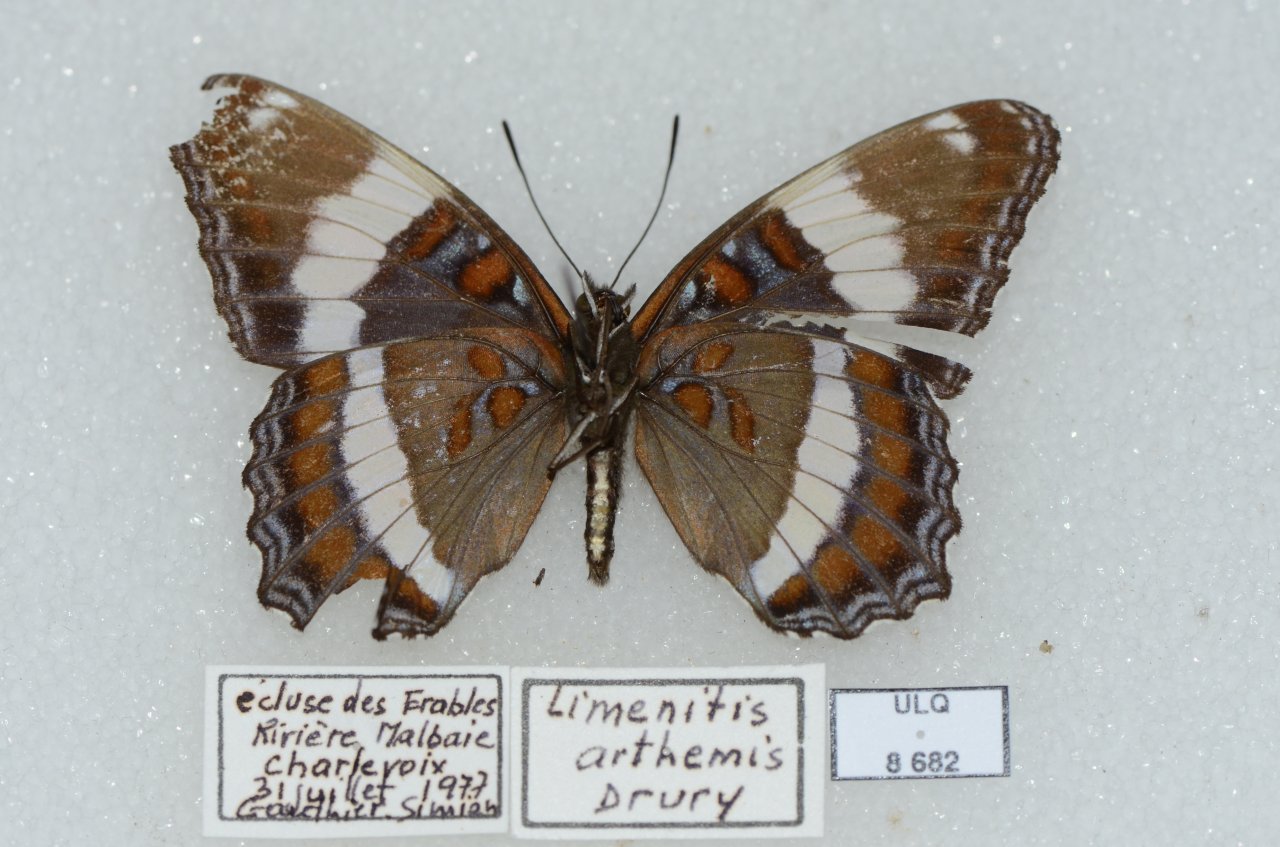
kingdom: Animalia
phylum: Arthropoda
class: Insecta
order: Lepidoptera
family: Nymphalidae
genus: Limenitis
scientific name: Limenitis arthemis
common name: Red-spotted Admiral
